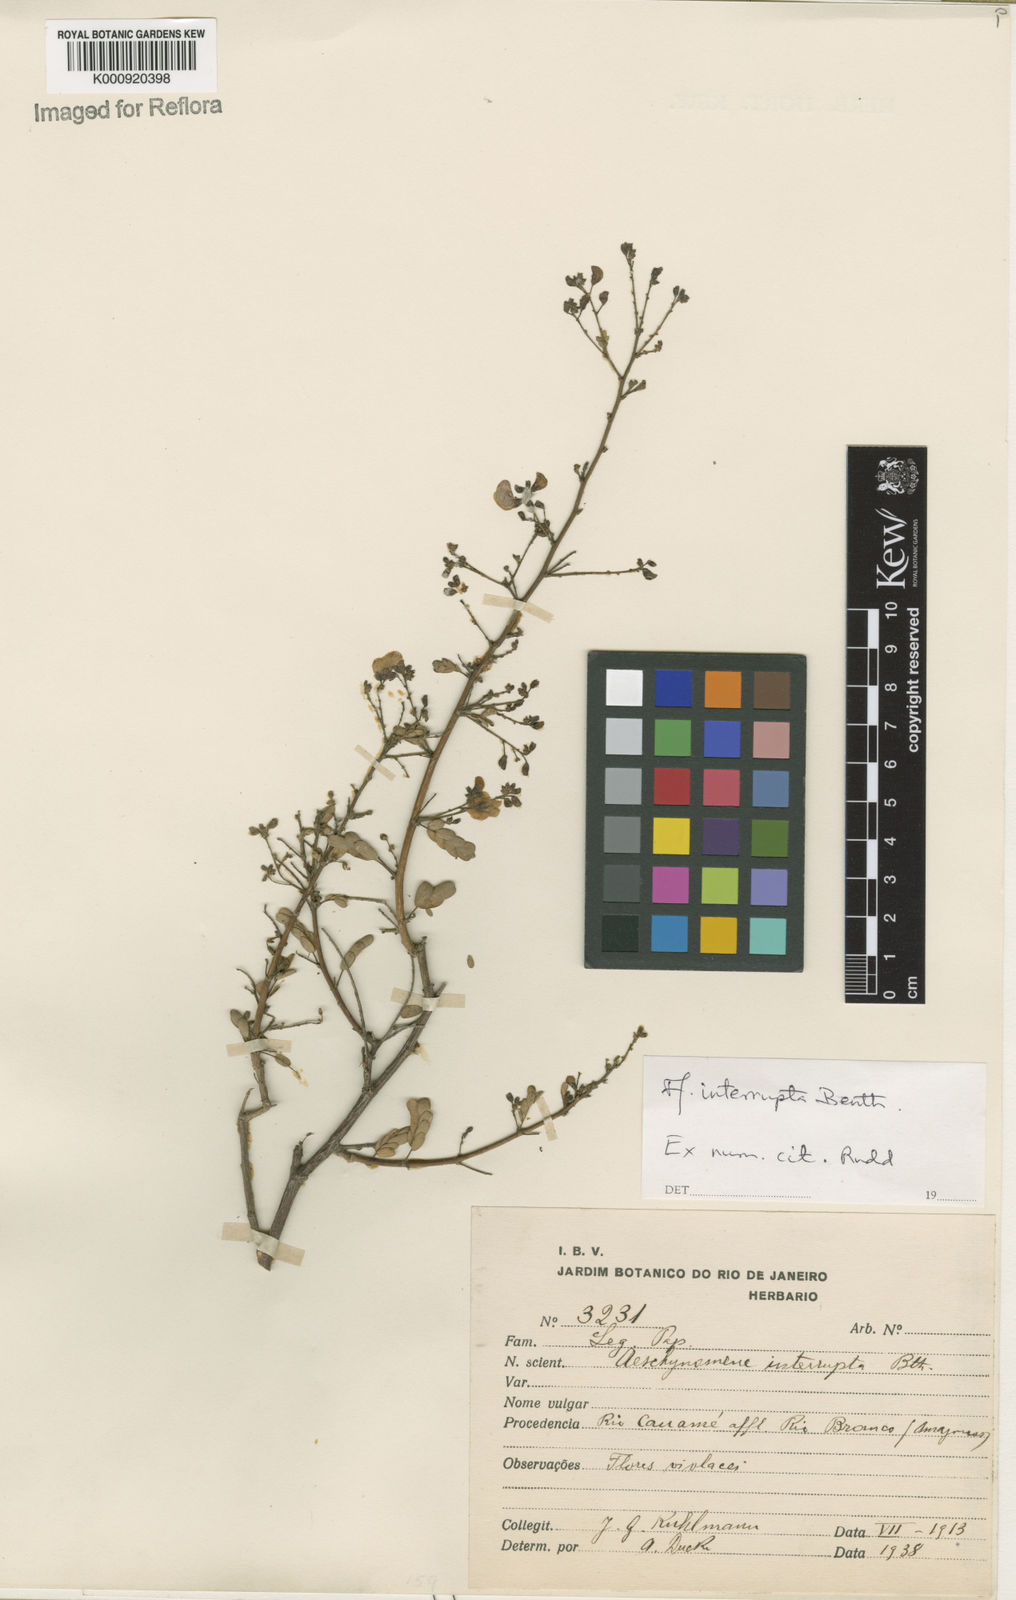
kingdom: Plantae
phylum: Tracheophyta
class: Magnoliopsida
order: Fabales
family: Fabaceae
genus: Ctenodon
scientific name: Ctenodon interruptus
